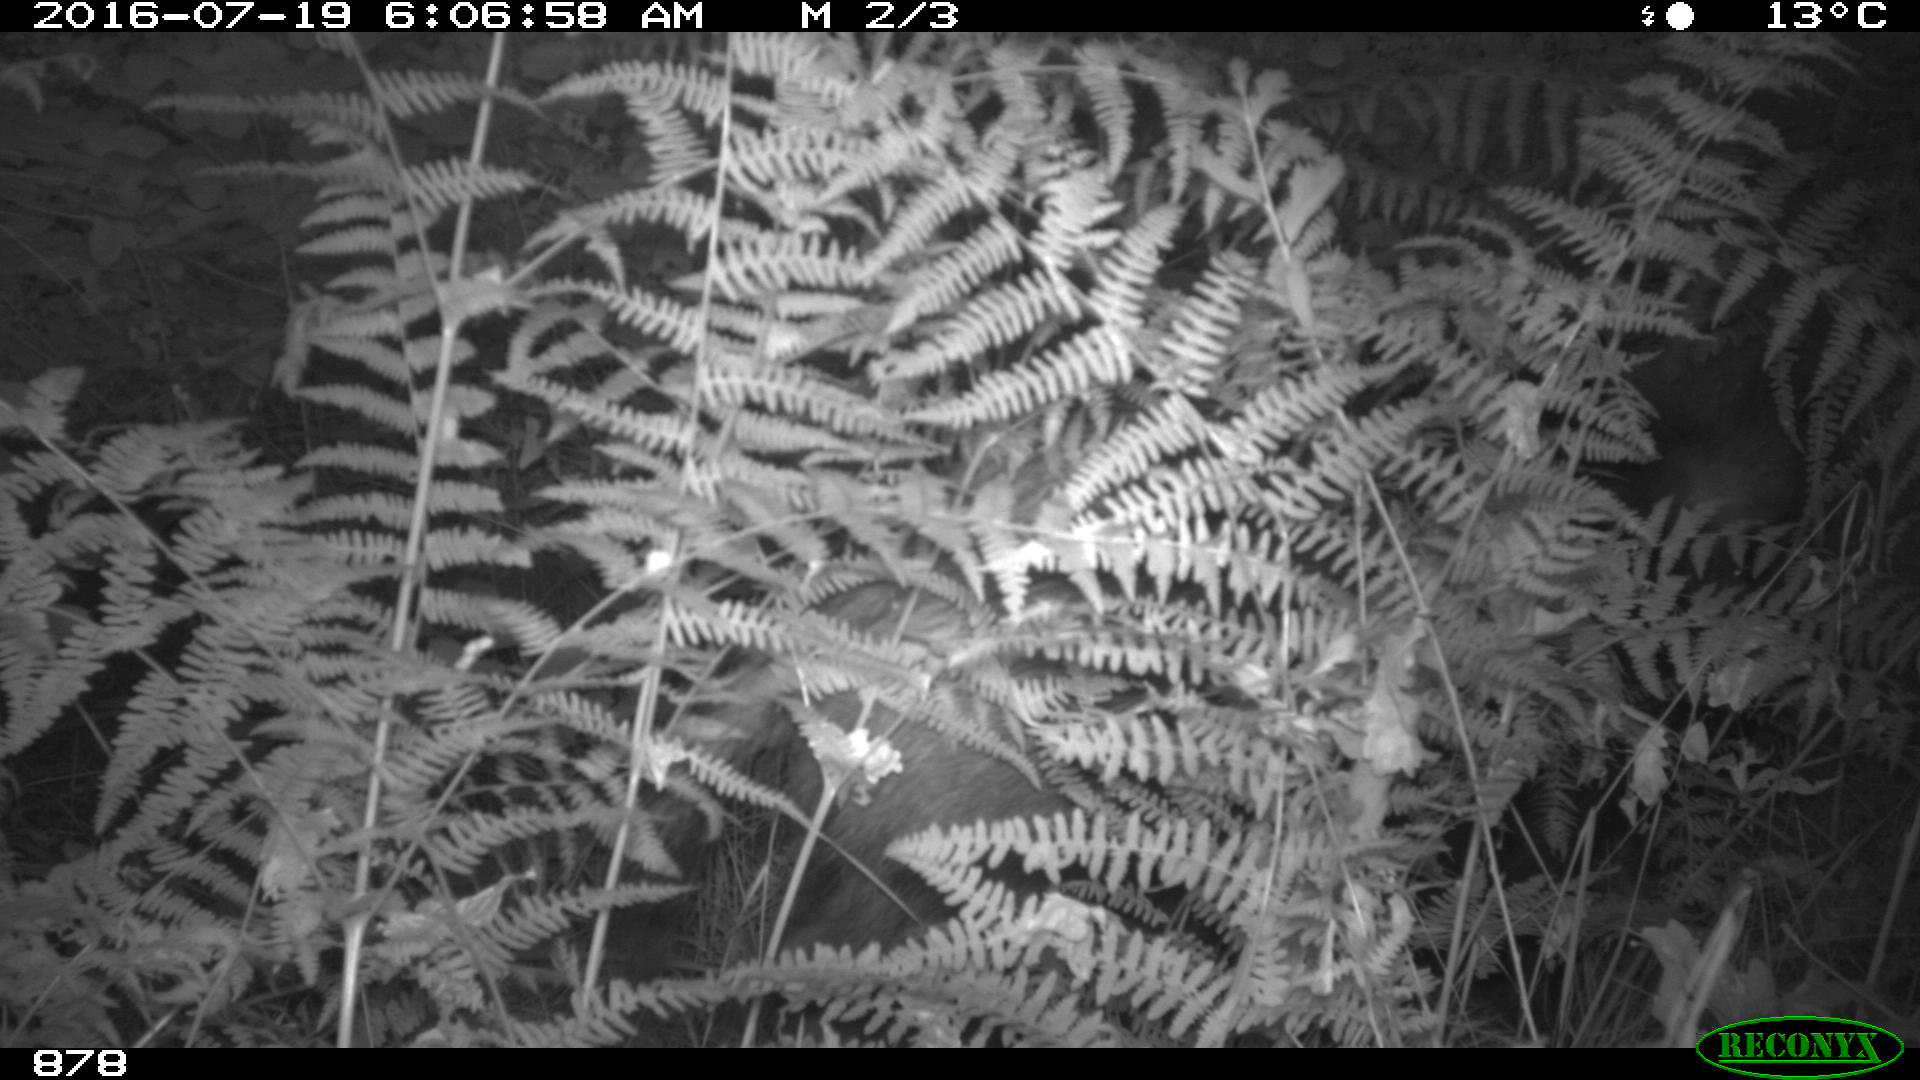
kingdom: Animalia
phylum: Chordata
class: Mammalia
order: Artiodactyla
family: Suidae
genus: Sus
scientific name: Sus scrofa
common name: Wild boar
